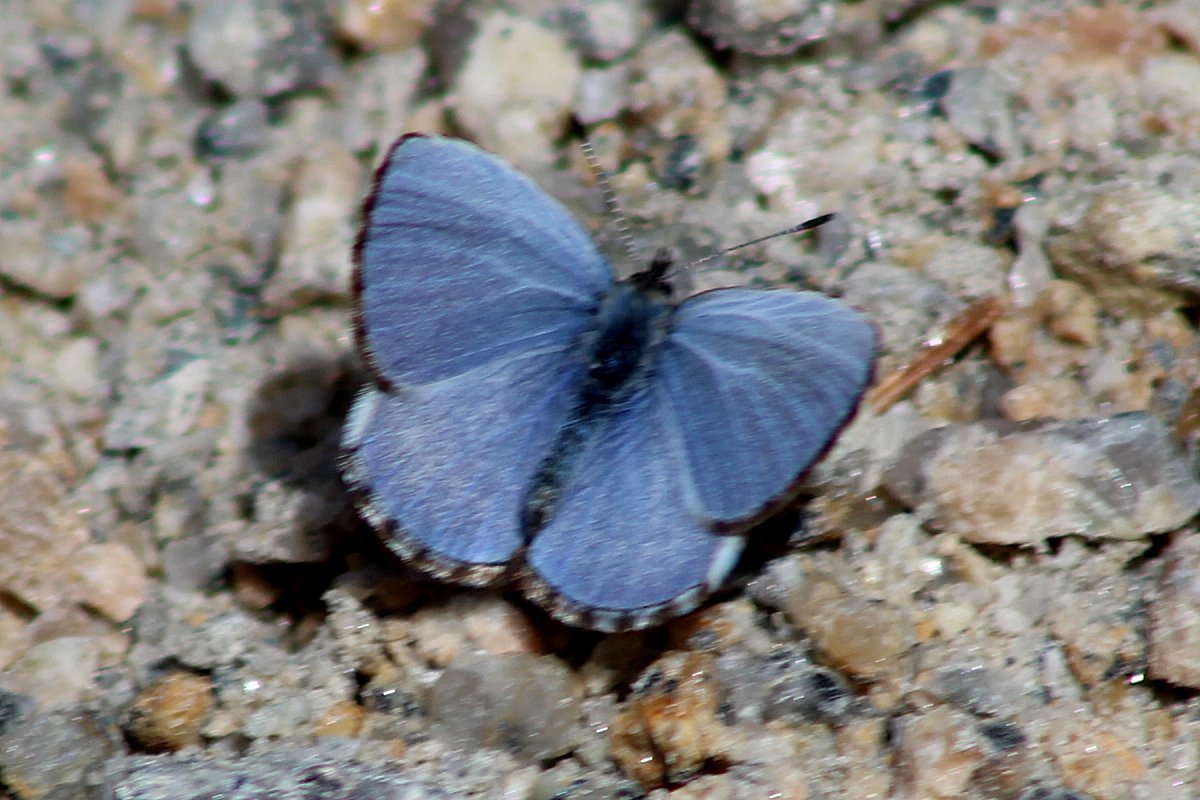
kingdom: Animalia
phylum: Arthropoda
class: Insecta
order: Lepidoptera
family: Lycaenidae
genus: Celastrina
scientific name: Celastrina lucia
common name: Northern Spring Azure
